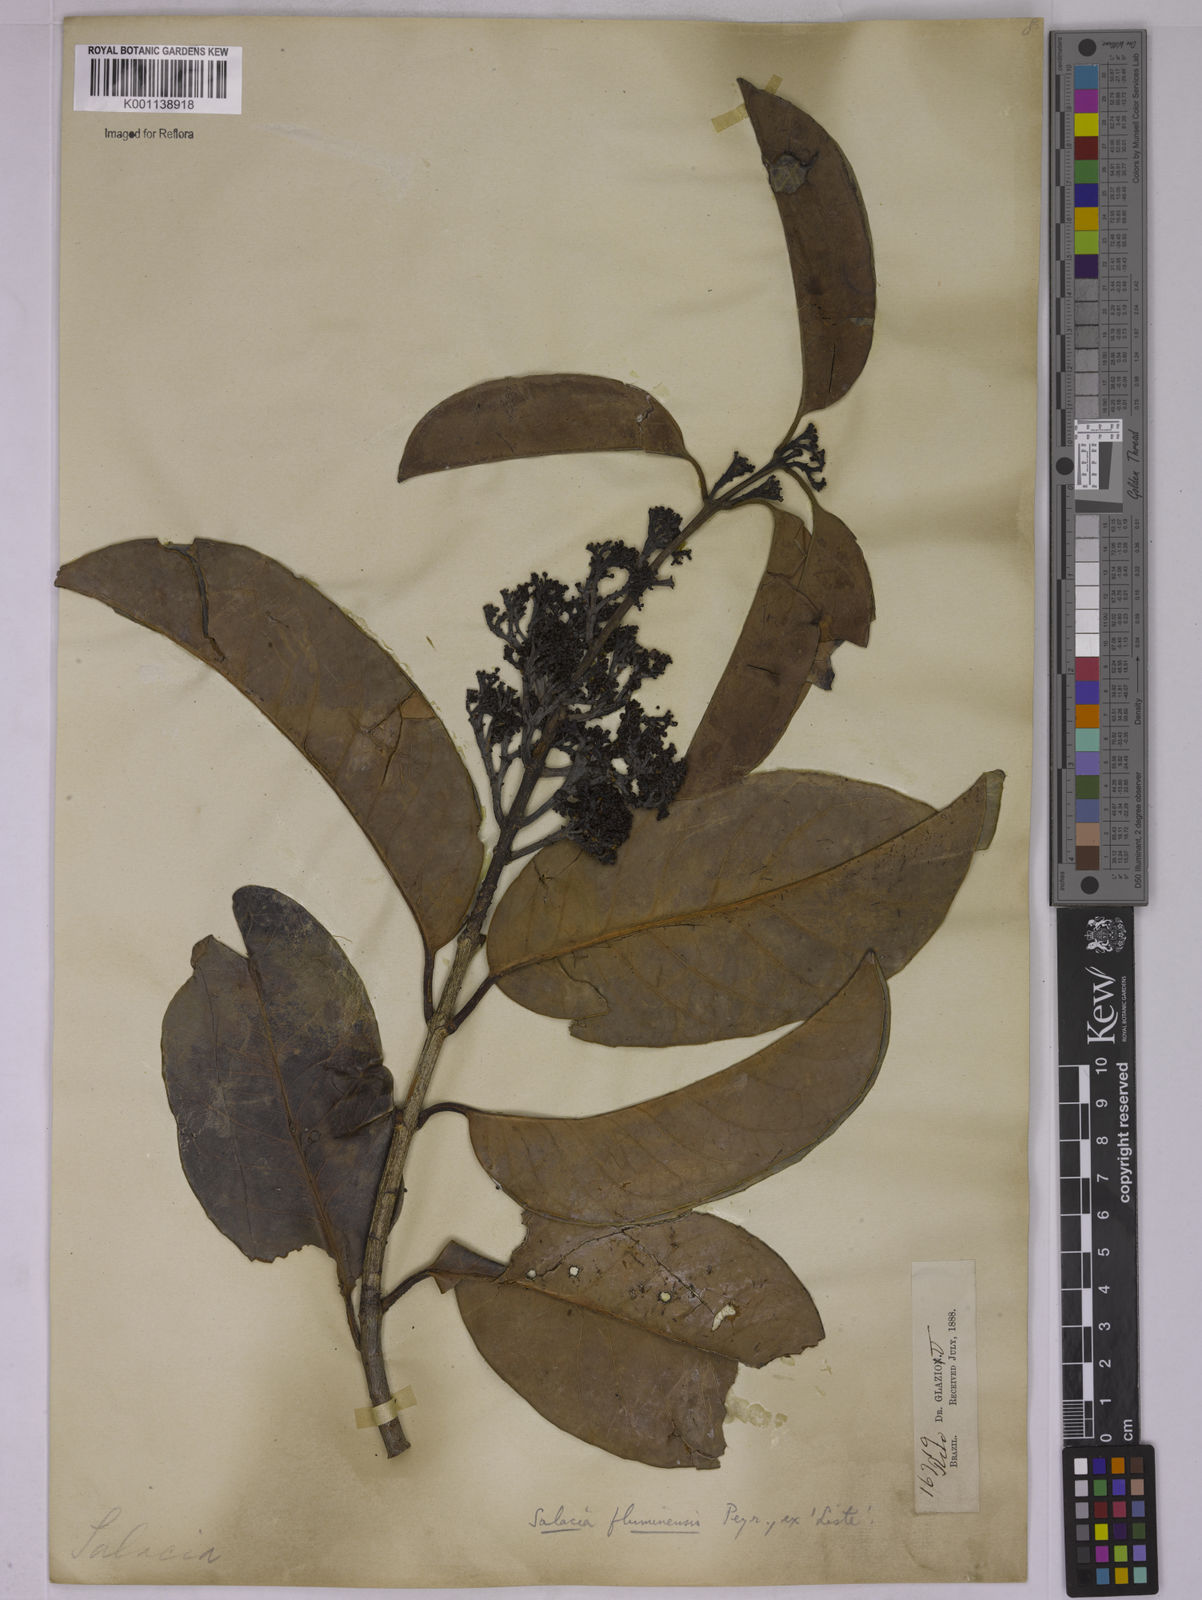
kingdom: Plantae
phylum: Tracheophyta
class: Magnoliopsida
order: Celastrales
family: Celastraceae
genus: Tontelea
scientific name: Tontelea passiflora
